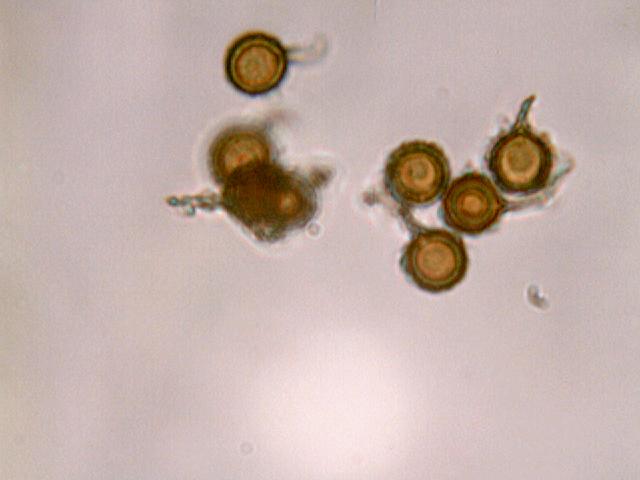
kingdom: Fungi
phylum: Basidiomycota
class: Agaricomycetes
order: Agaricales
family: Lycoperdaceae
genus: Bovista
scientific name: Bovista nigrescens
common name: sortagtig bovist
